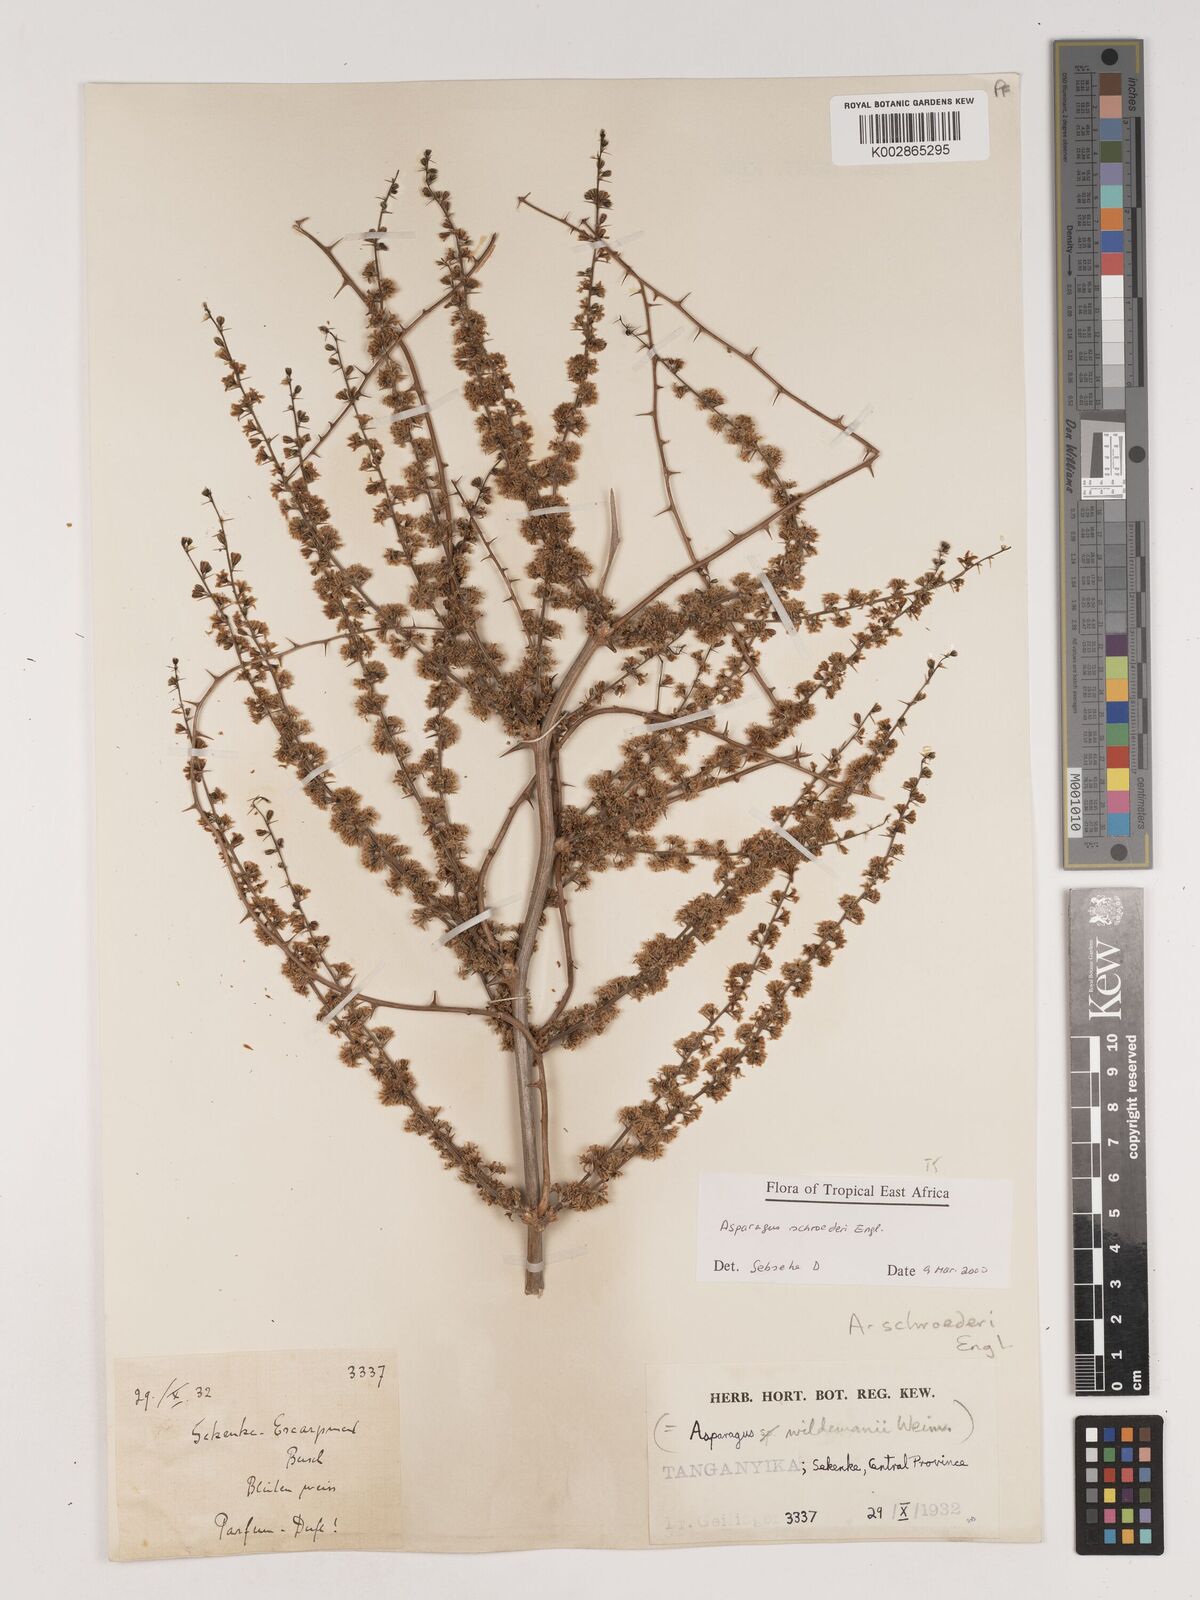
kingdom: Plantae
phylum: Tracheophyta
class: Liliopsida
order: Asparagales
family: Asparagaceae
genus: Asparagus
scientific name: Asparagus schroederi
